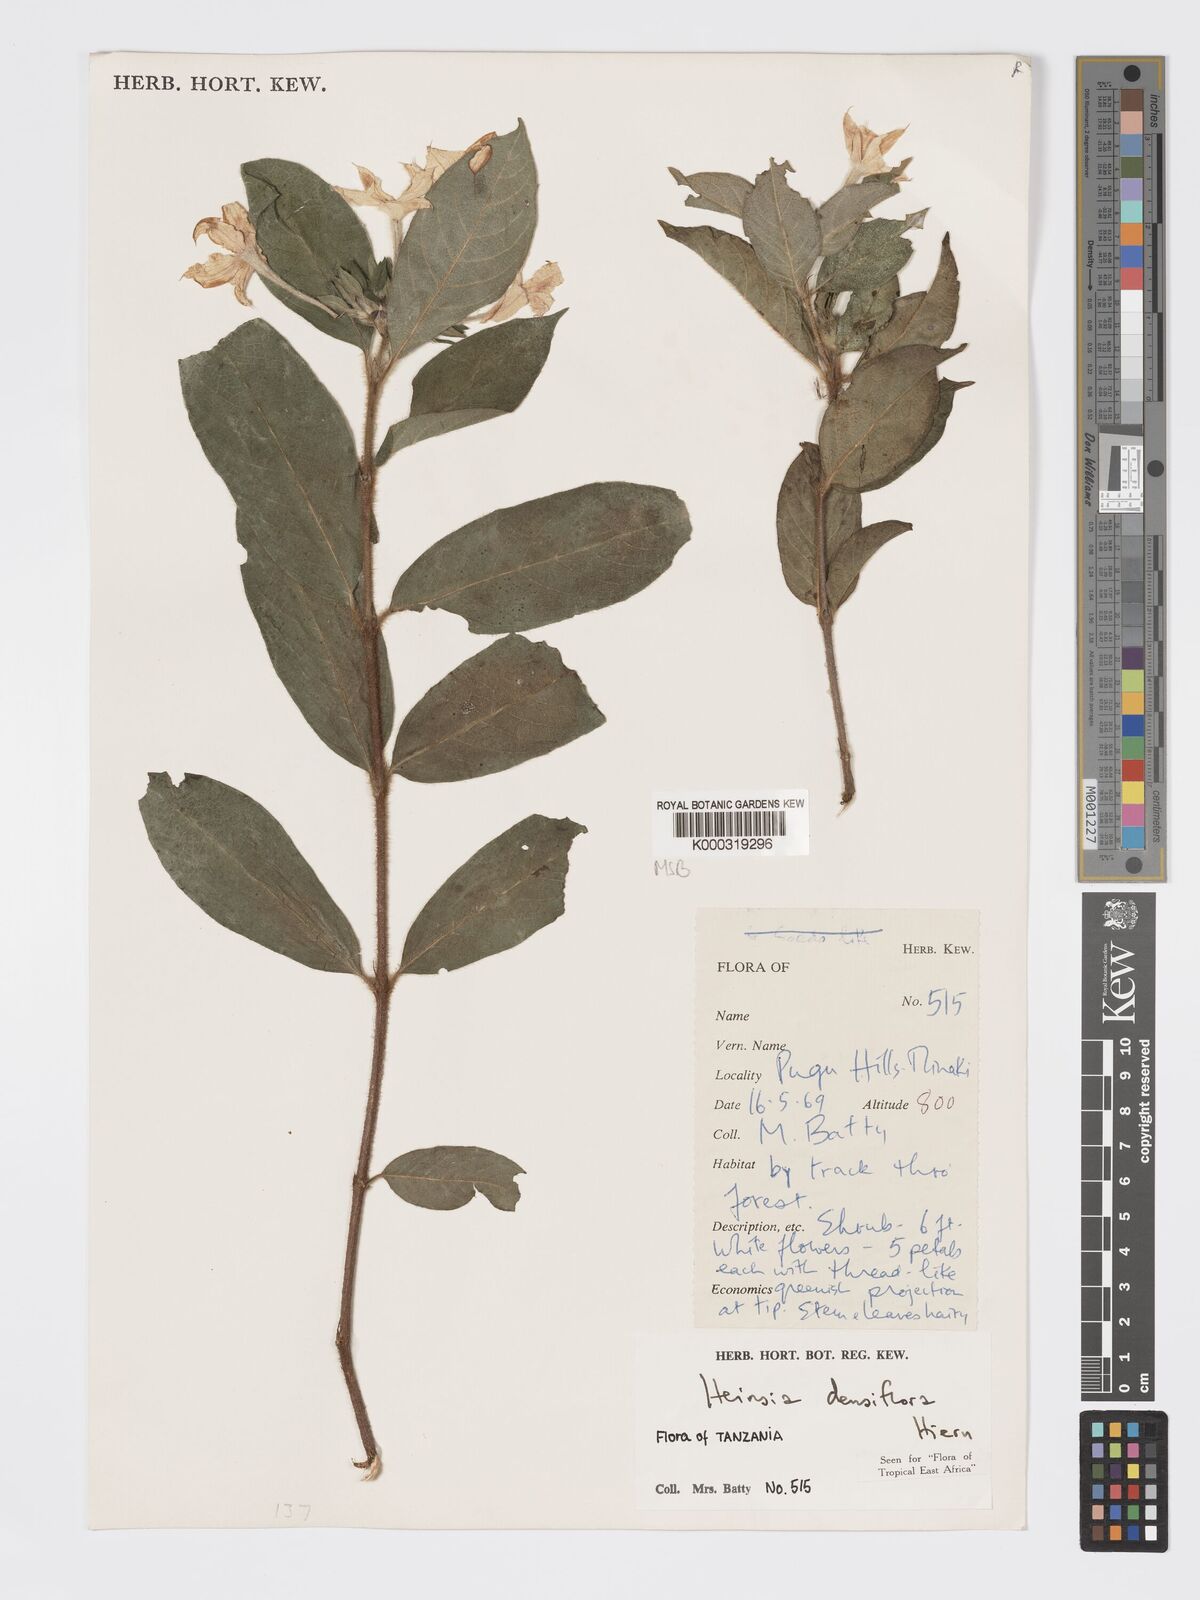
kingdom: Plantae
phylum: Tracheophyta
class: Magnoliopsida
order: Gentianales
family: Rubiaceae
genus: Heinsia
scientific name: Heinsia zanzibarica
